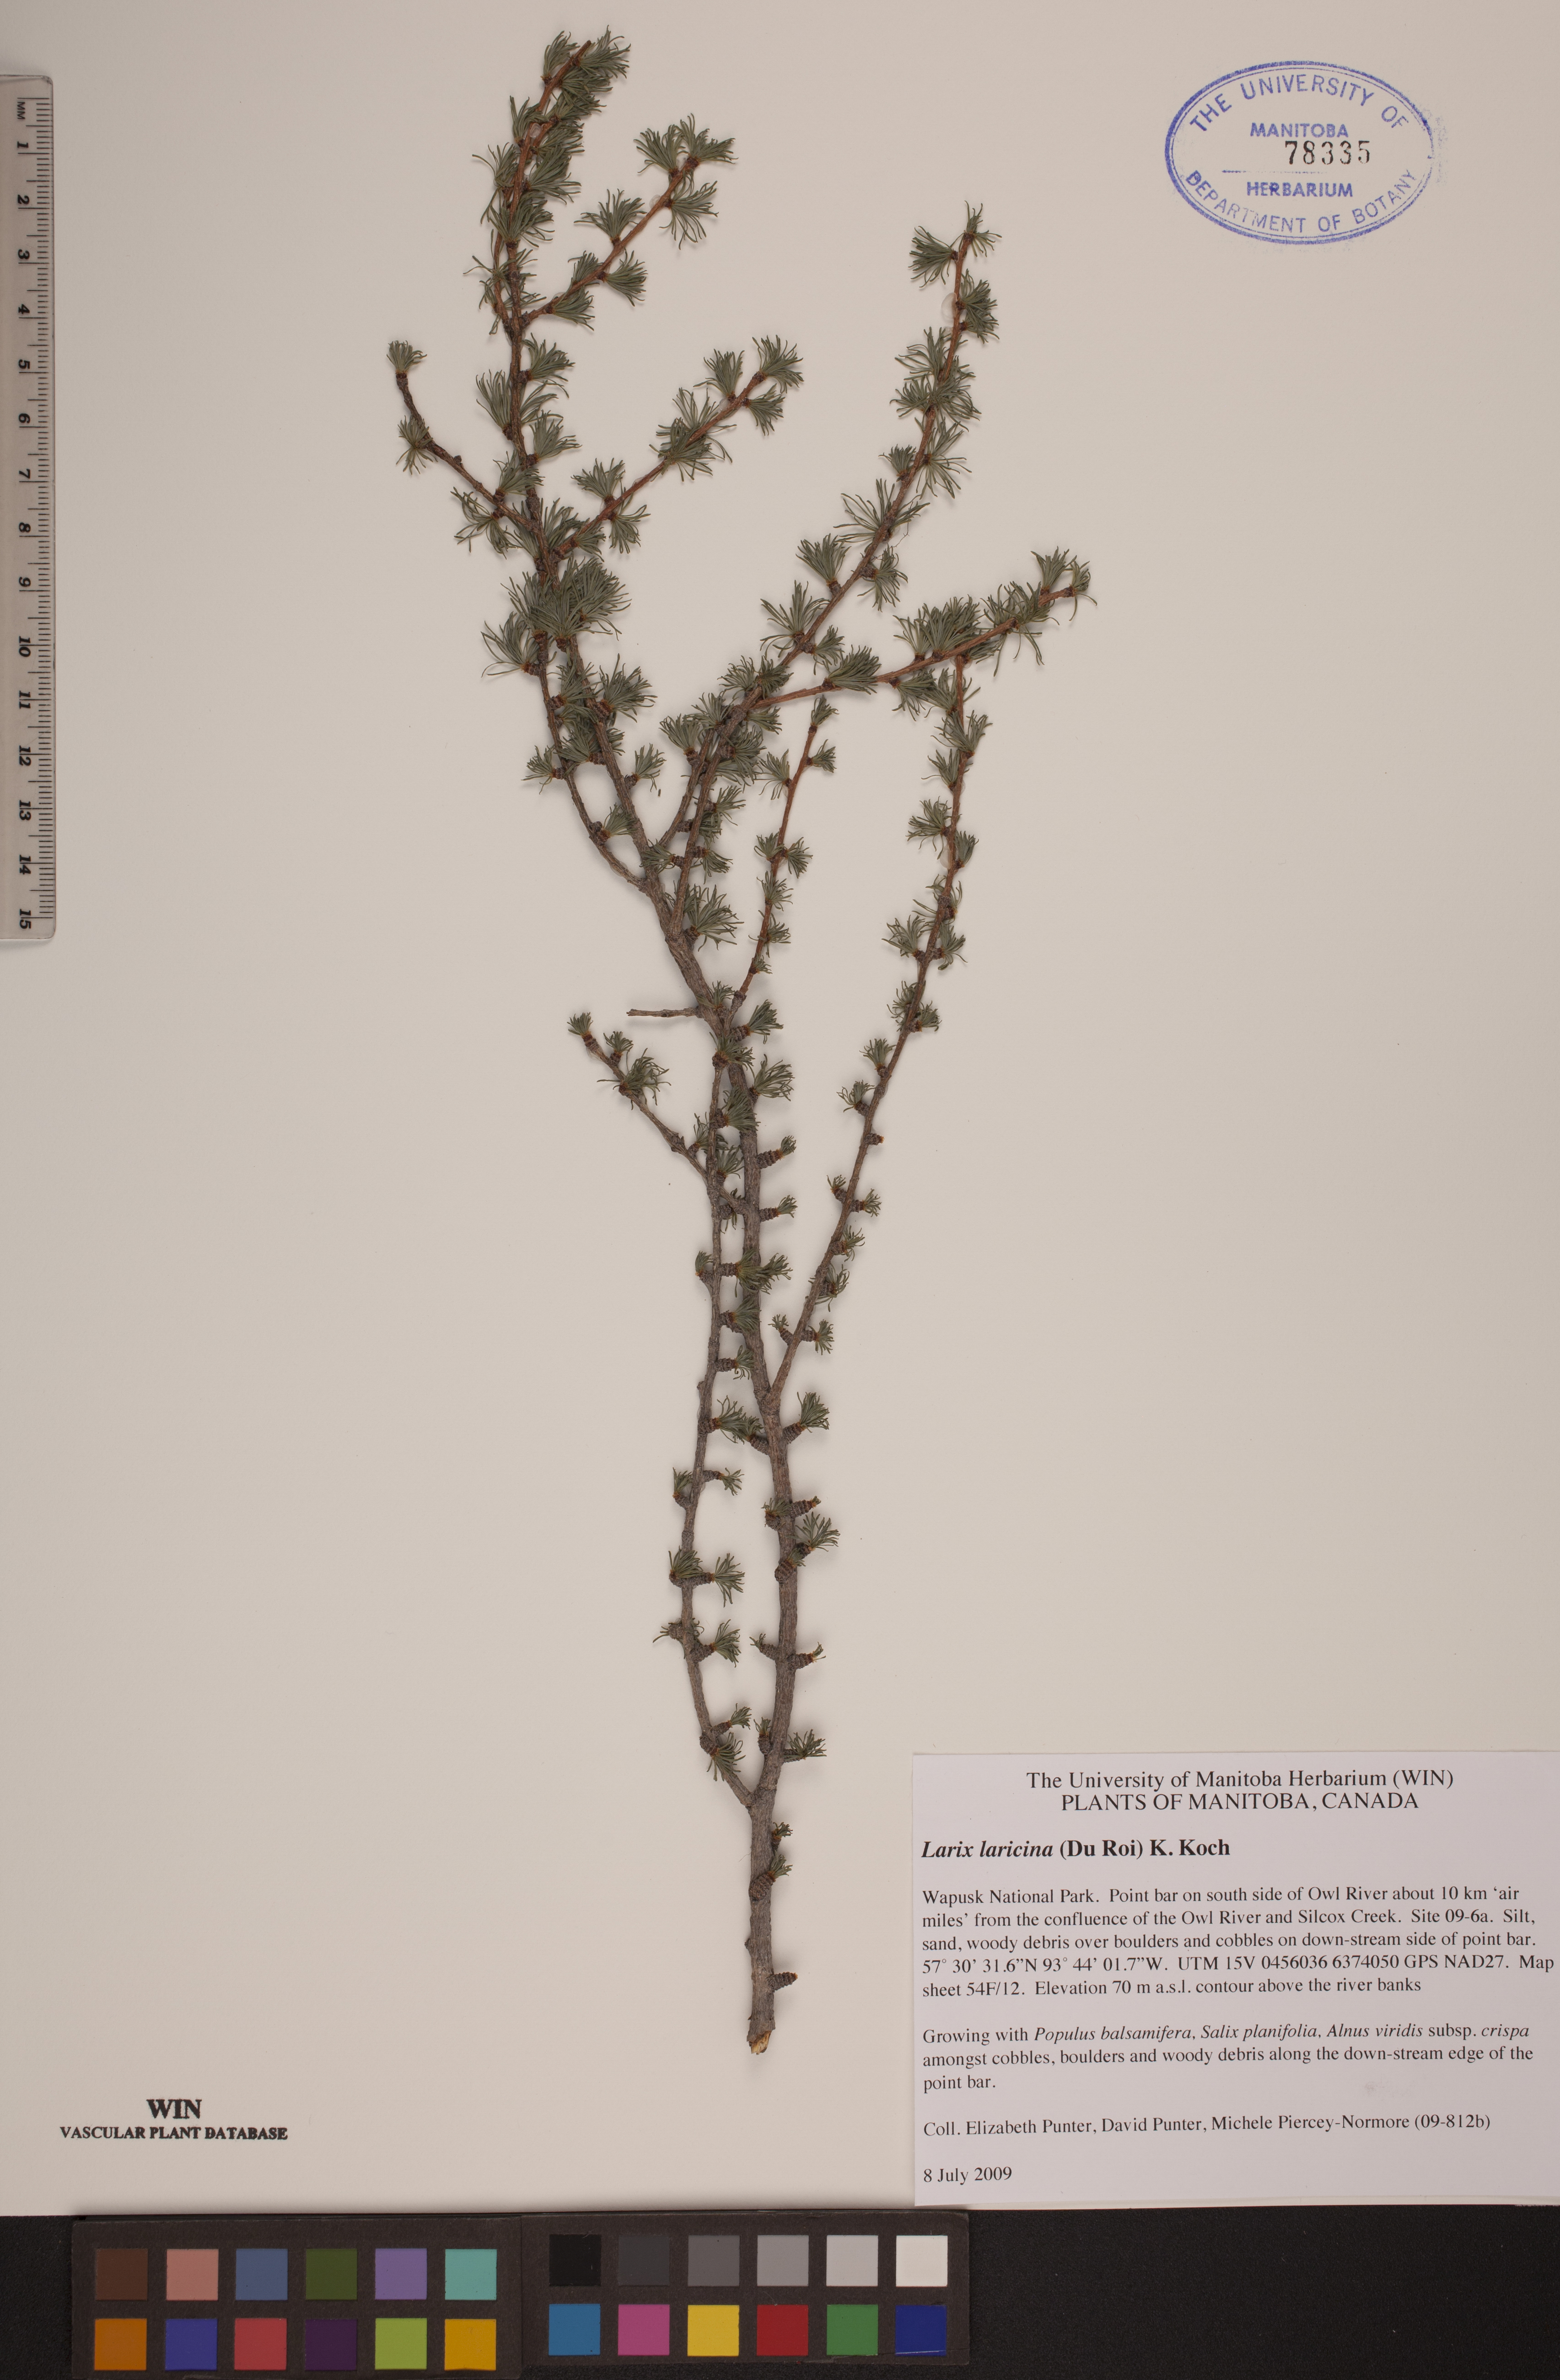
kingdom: Plantae
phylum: Tracheophyta
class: Pinopsida
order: Pinales
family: Pinaceae
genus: Larix
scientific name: Larix laricina
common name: American larch
